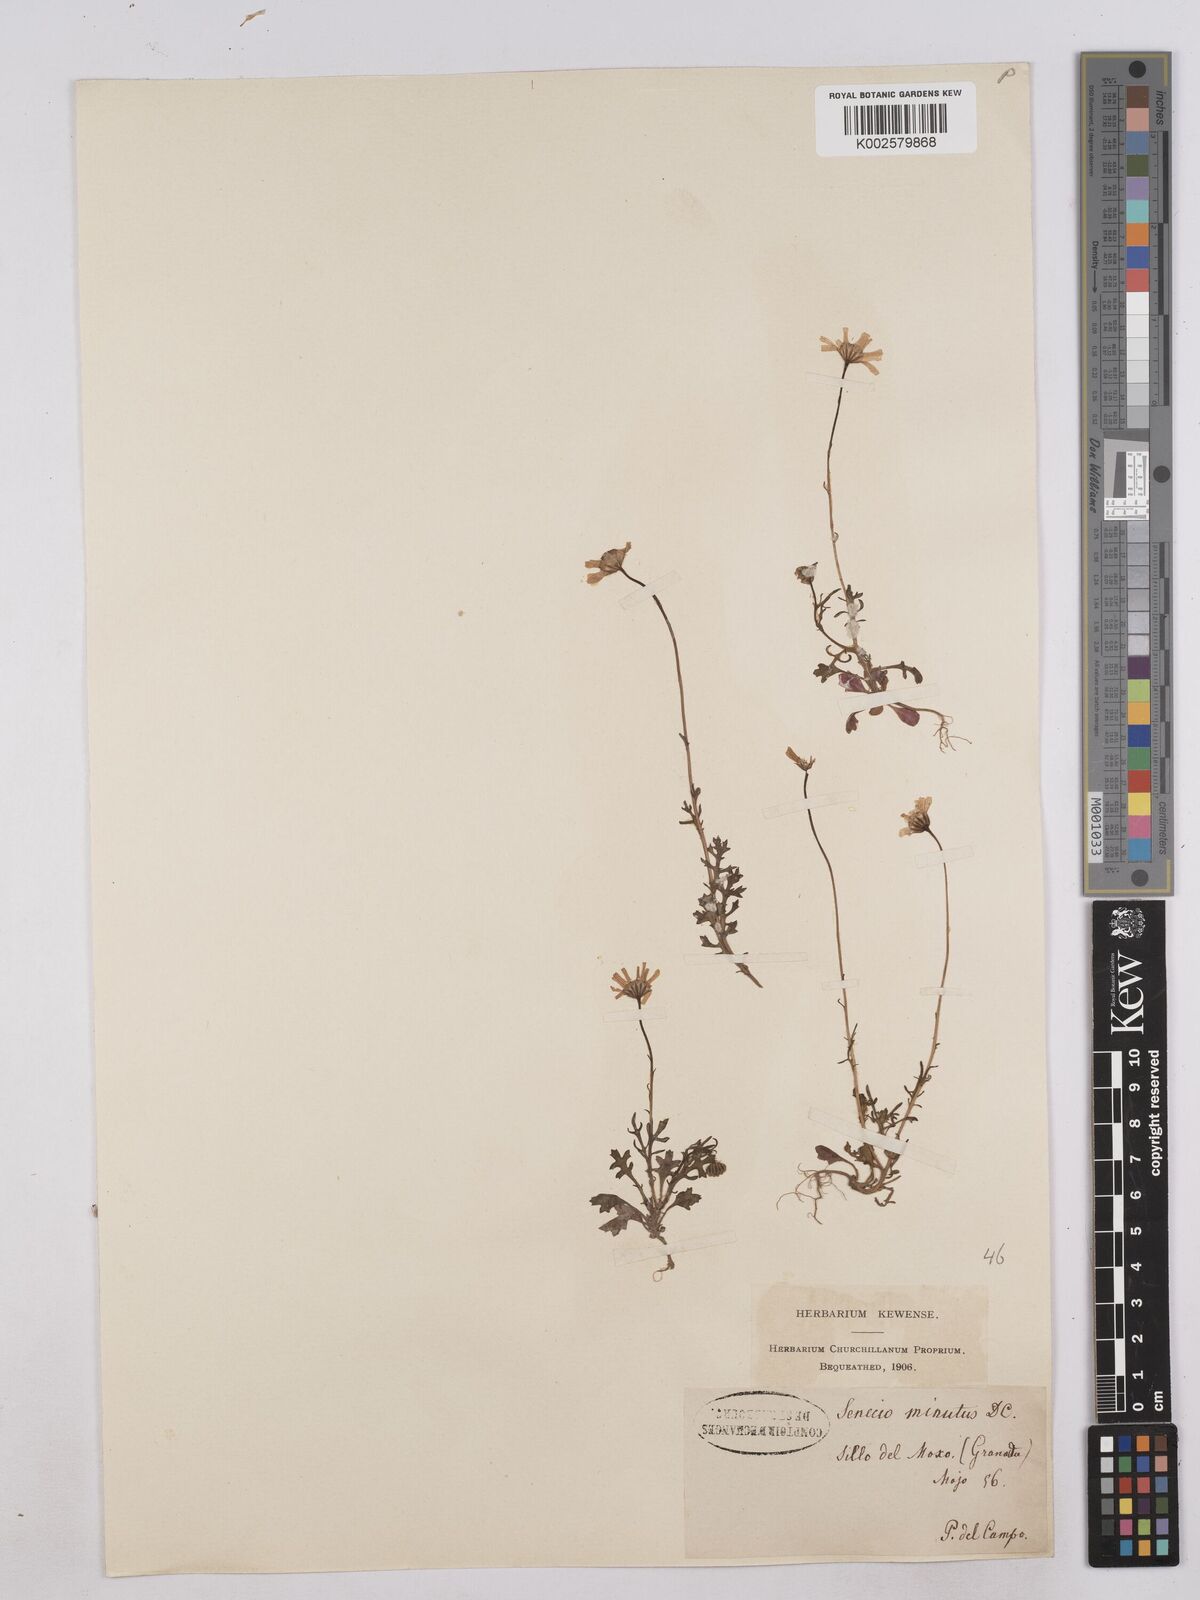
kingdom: Plantae
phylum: Tracheophyta
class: Magnoliopsida
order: Asterales
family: Asteraceae
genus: Jacobaea
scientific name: Jacobaea minuta
